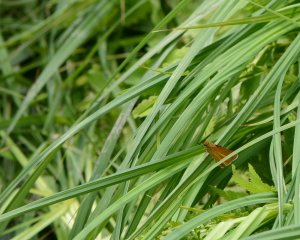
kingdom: Animalia
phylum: Arthropoda
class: Insecta
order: Lepidoptera
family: Hesperiidae
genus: Euphyes
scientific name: Euphyes dion
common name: Dion Skipper
